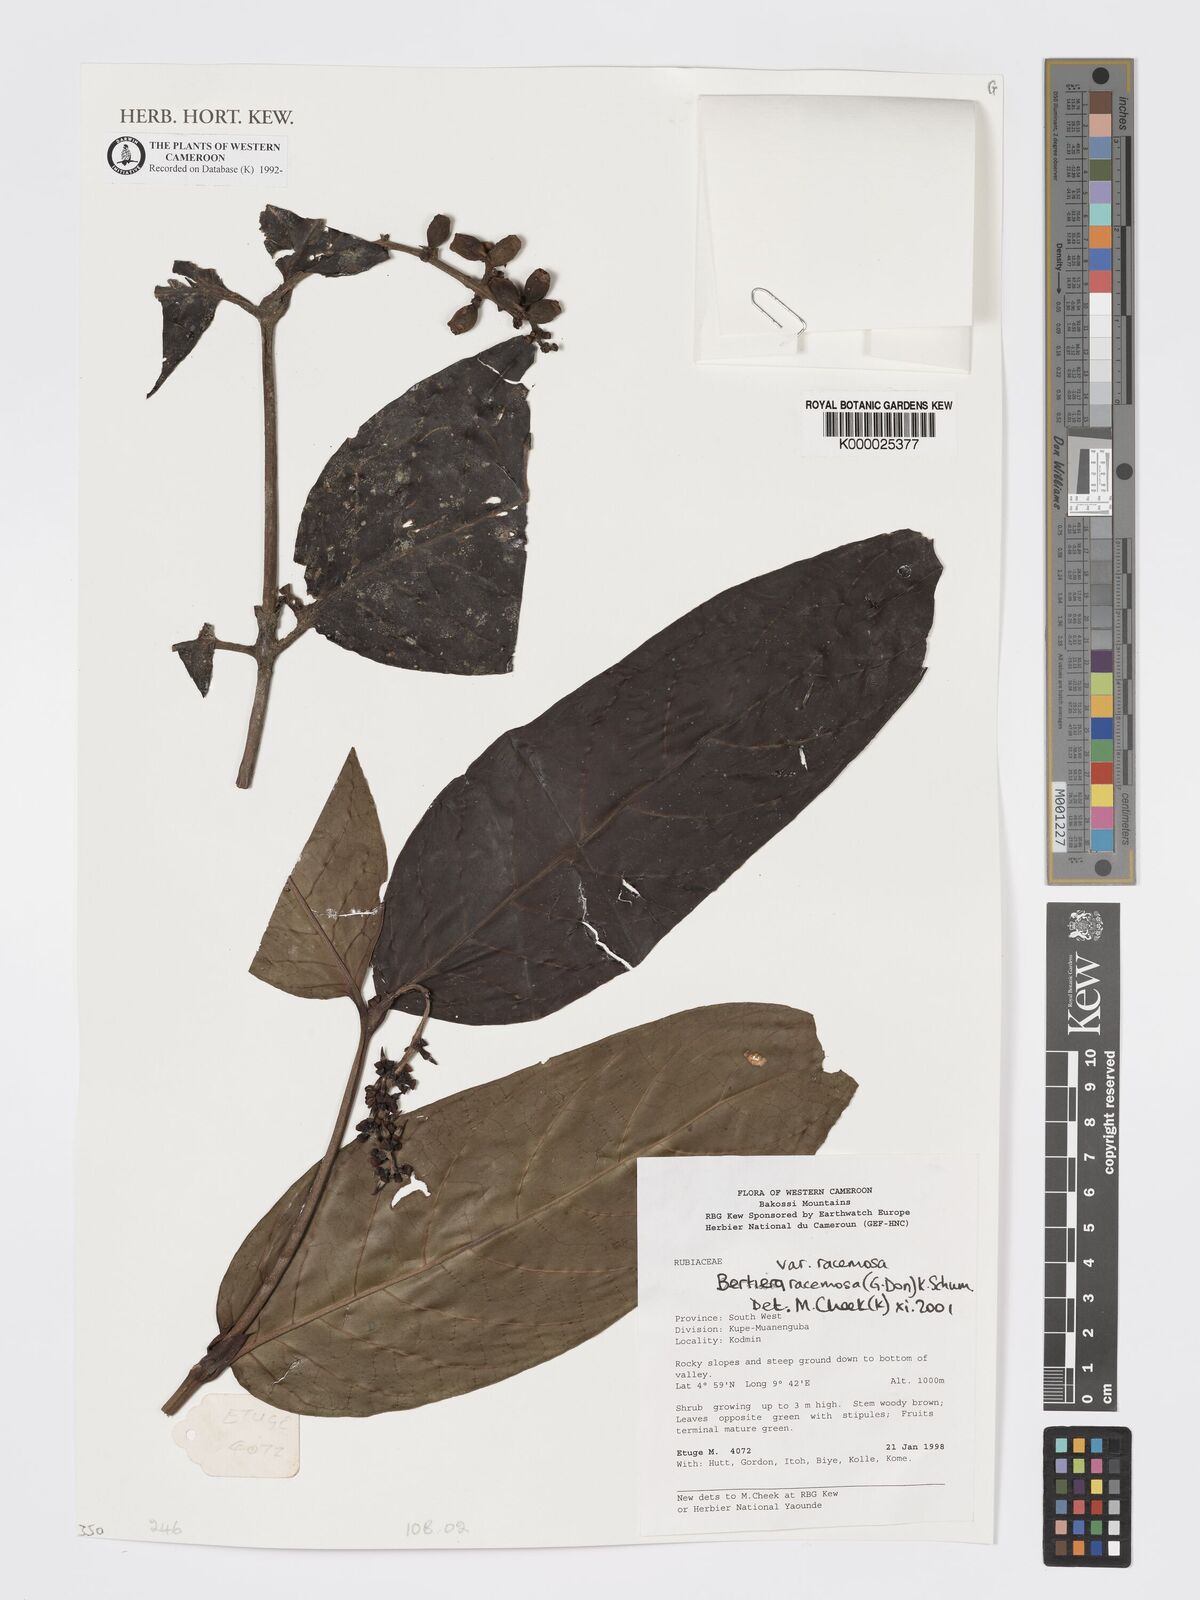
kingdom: Plantae
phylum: Tracheophyta
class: Magnoliopsida
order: Gentianales
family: Rubiaceae
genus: Bertiera
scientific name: Bertiera racemosa
